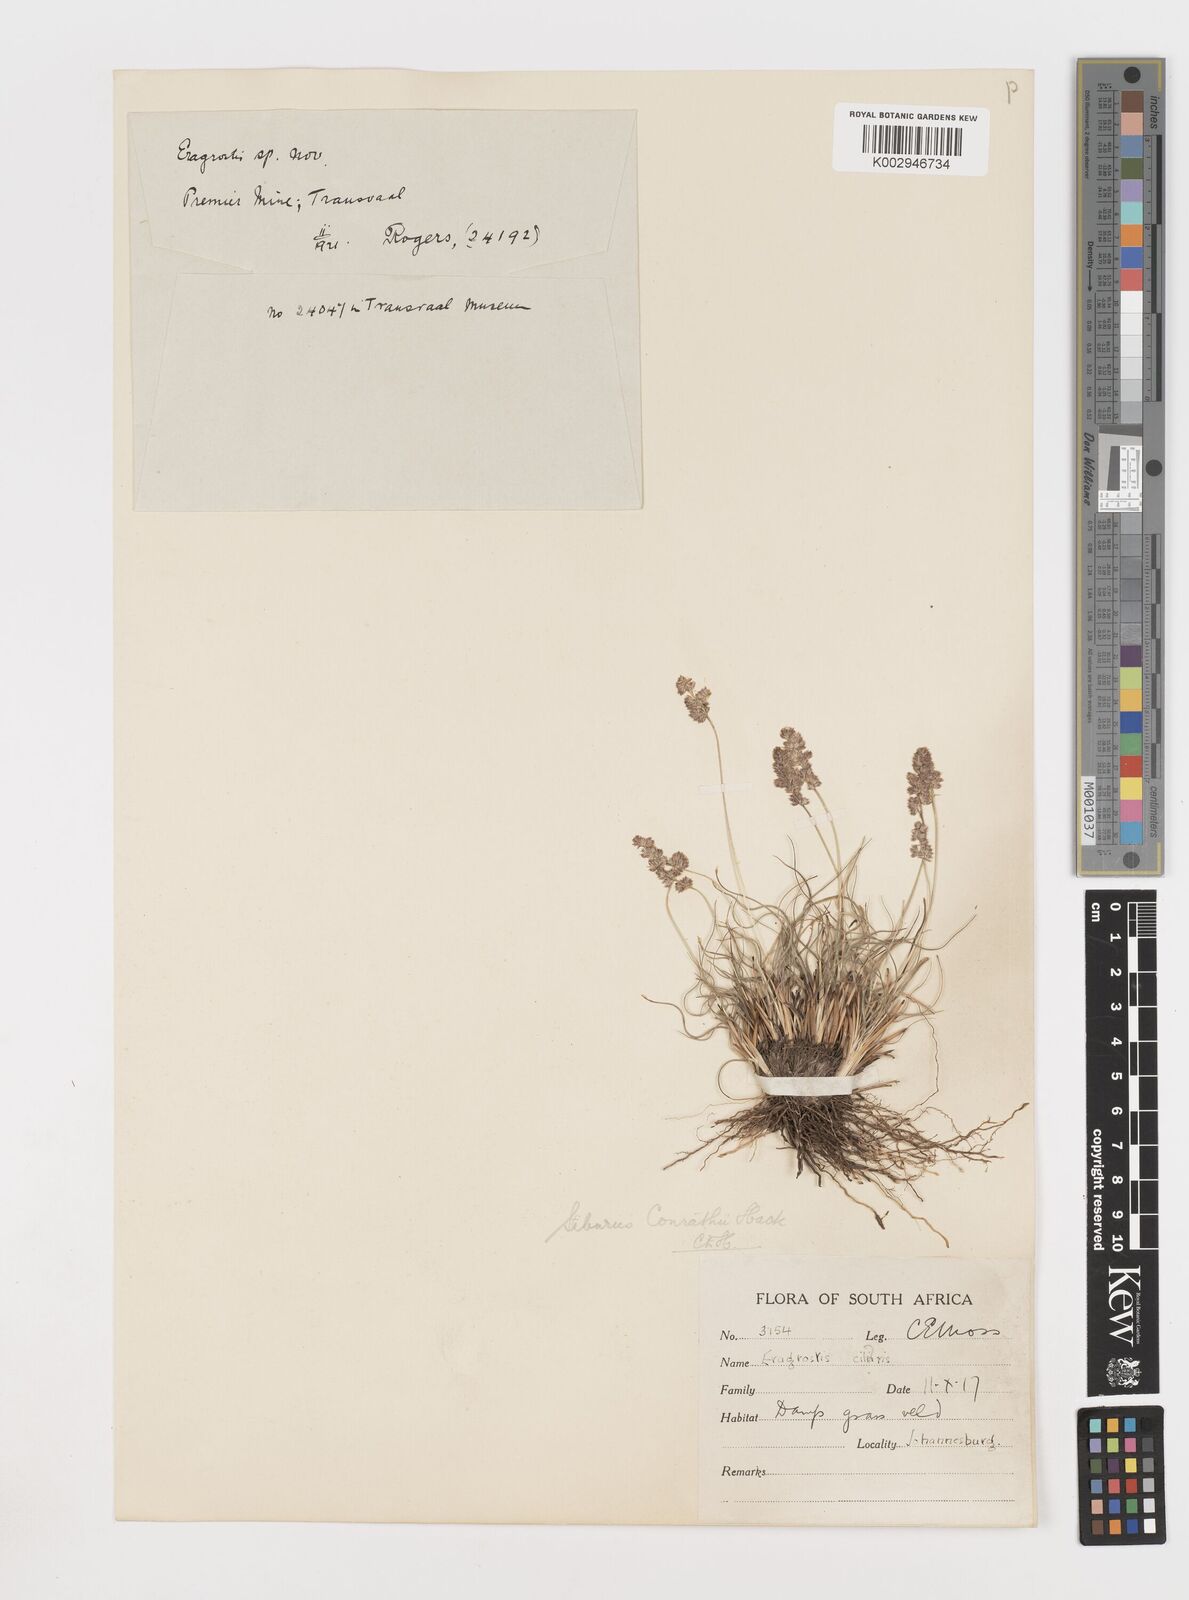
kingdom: Plantae
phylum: Tracheophyta
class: Liliopsida
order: Poales
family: Poaceae
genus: Stiburus
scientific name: Stiburus conrathii
